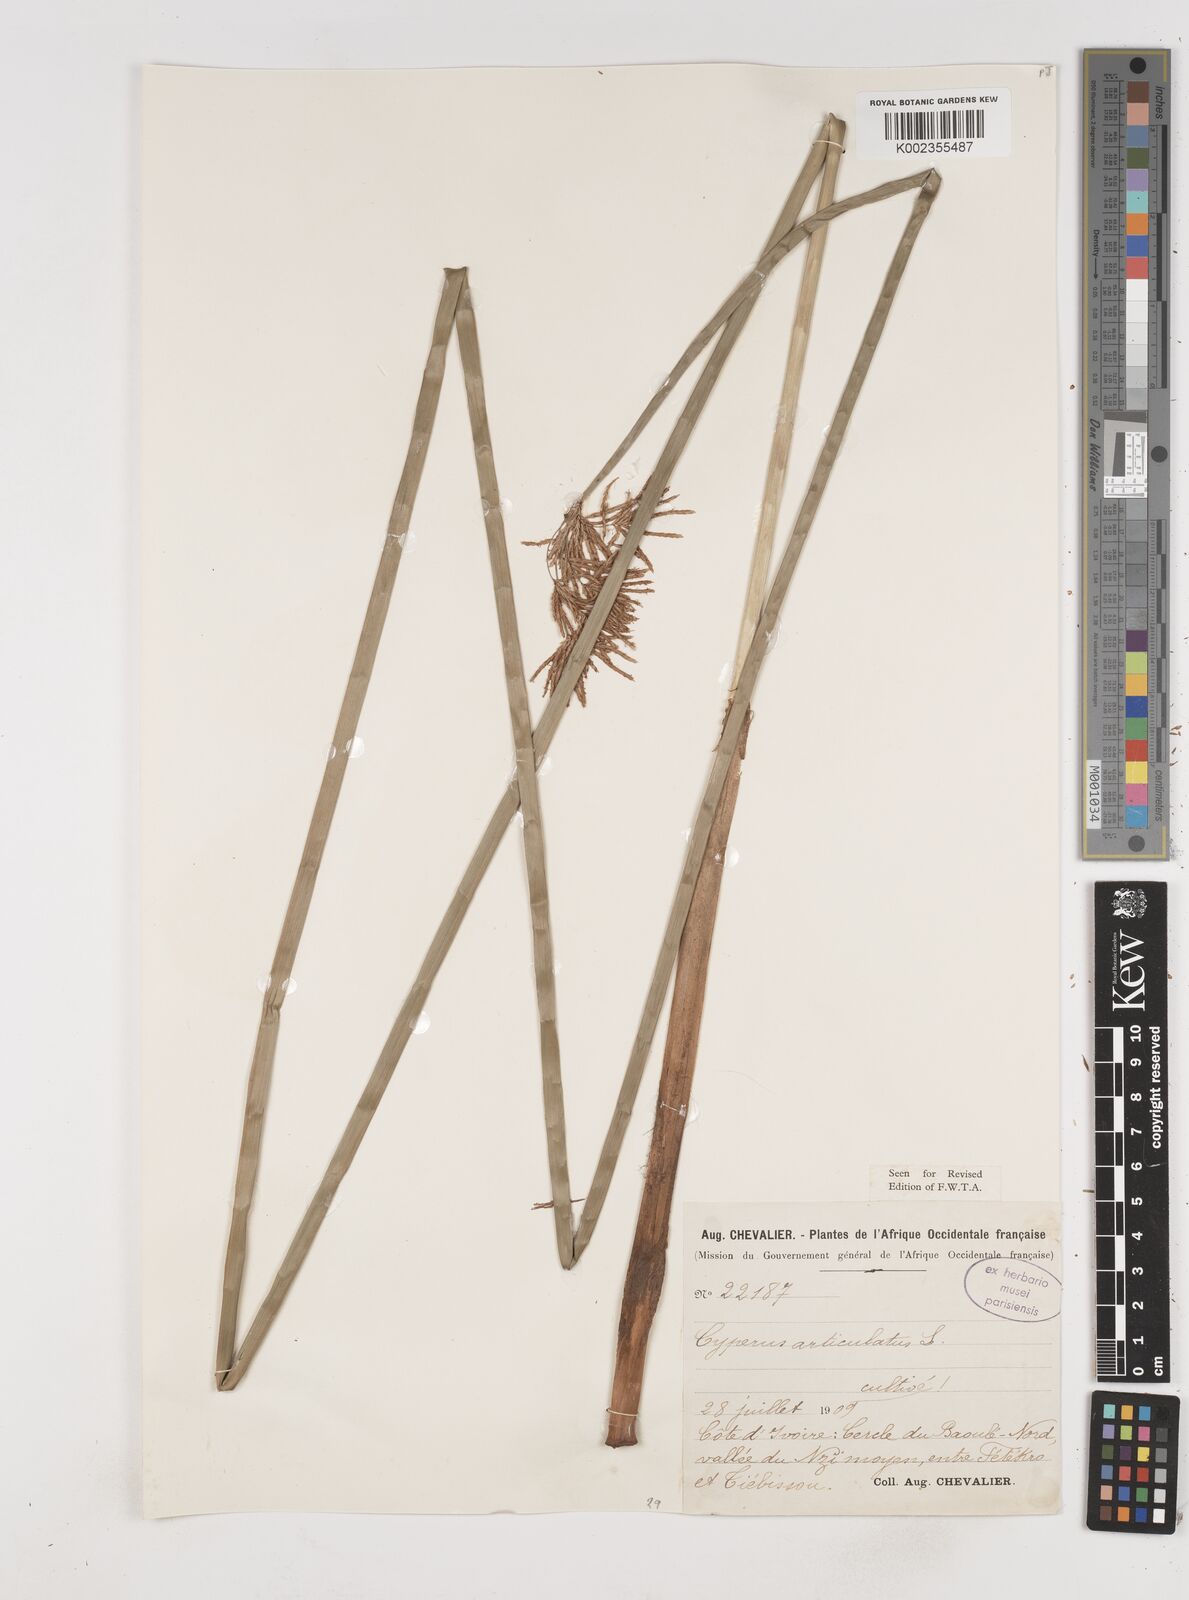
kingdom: Plantae
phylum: Tracheophyta
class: Liliopsida
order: Poales
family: Cyperaceae
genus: Cyperus
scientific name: Cyperus articulatus
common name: Jointed flatsedge
